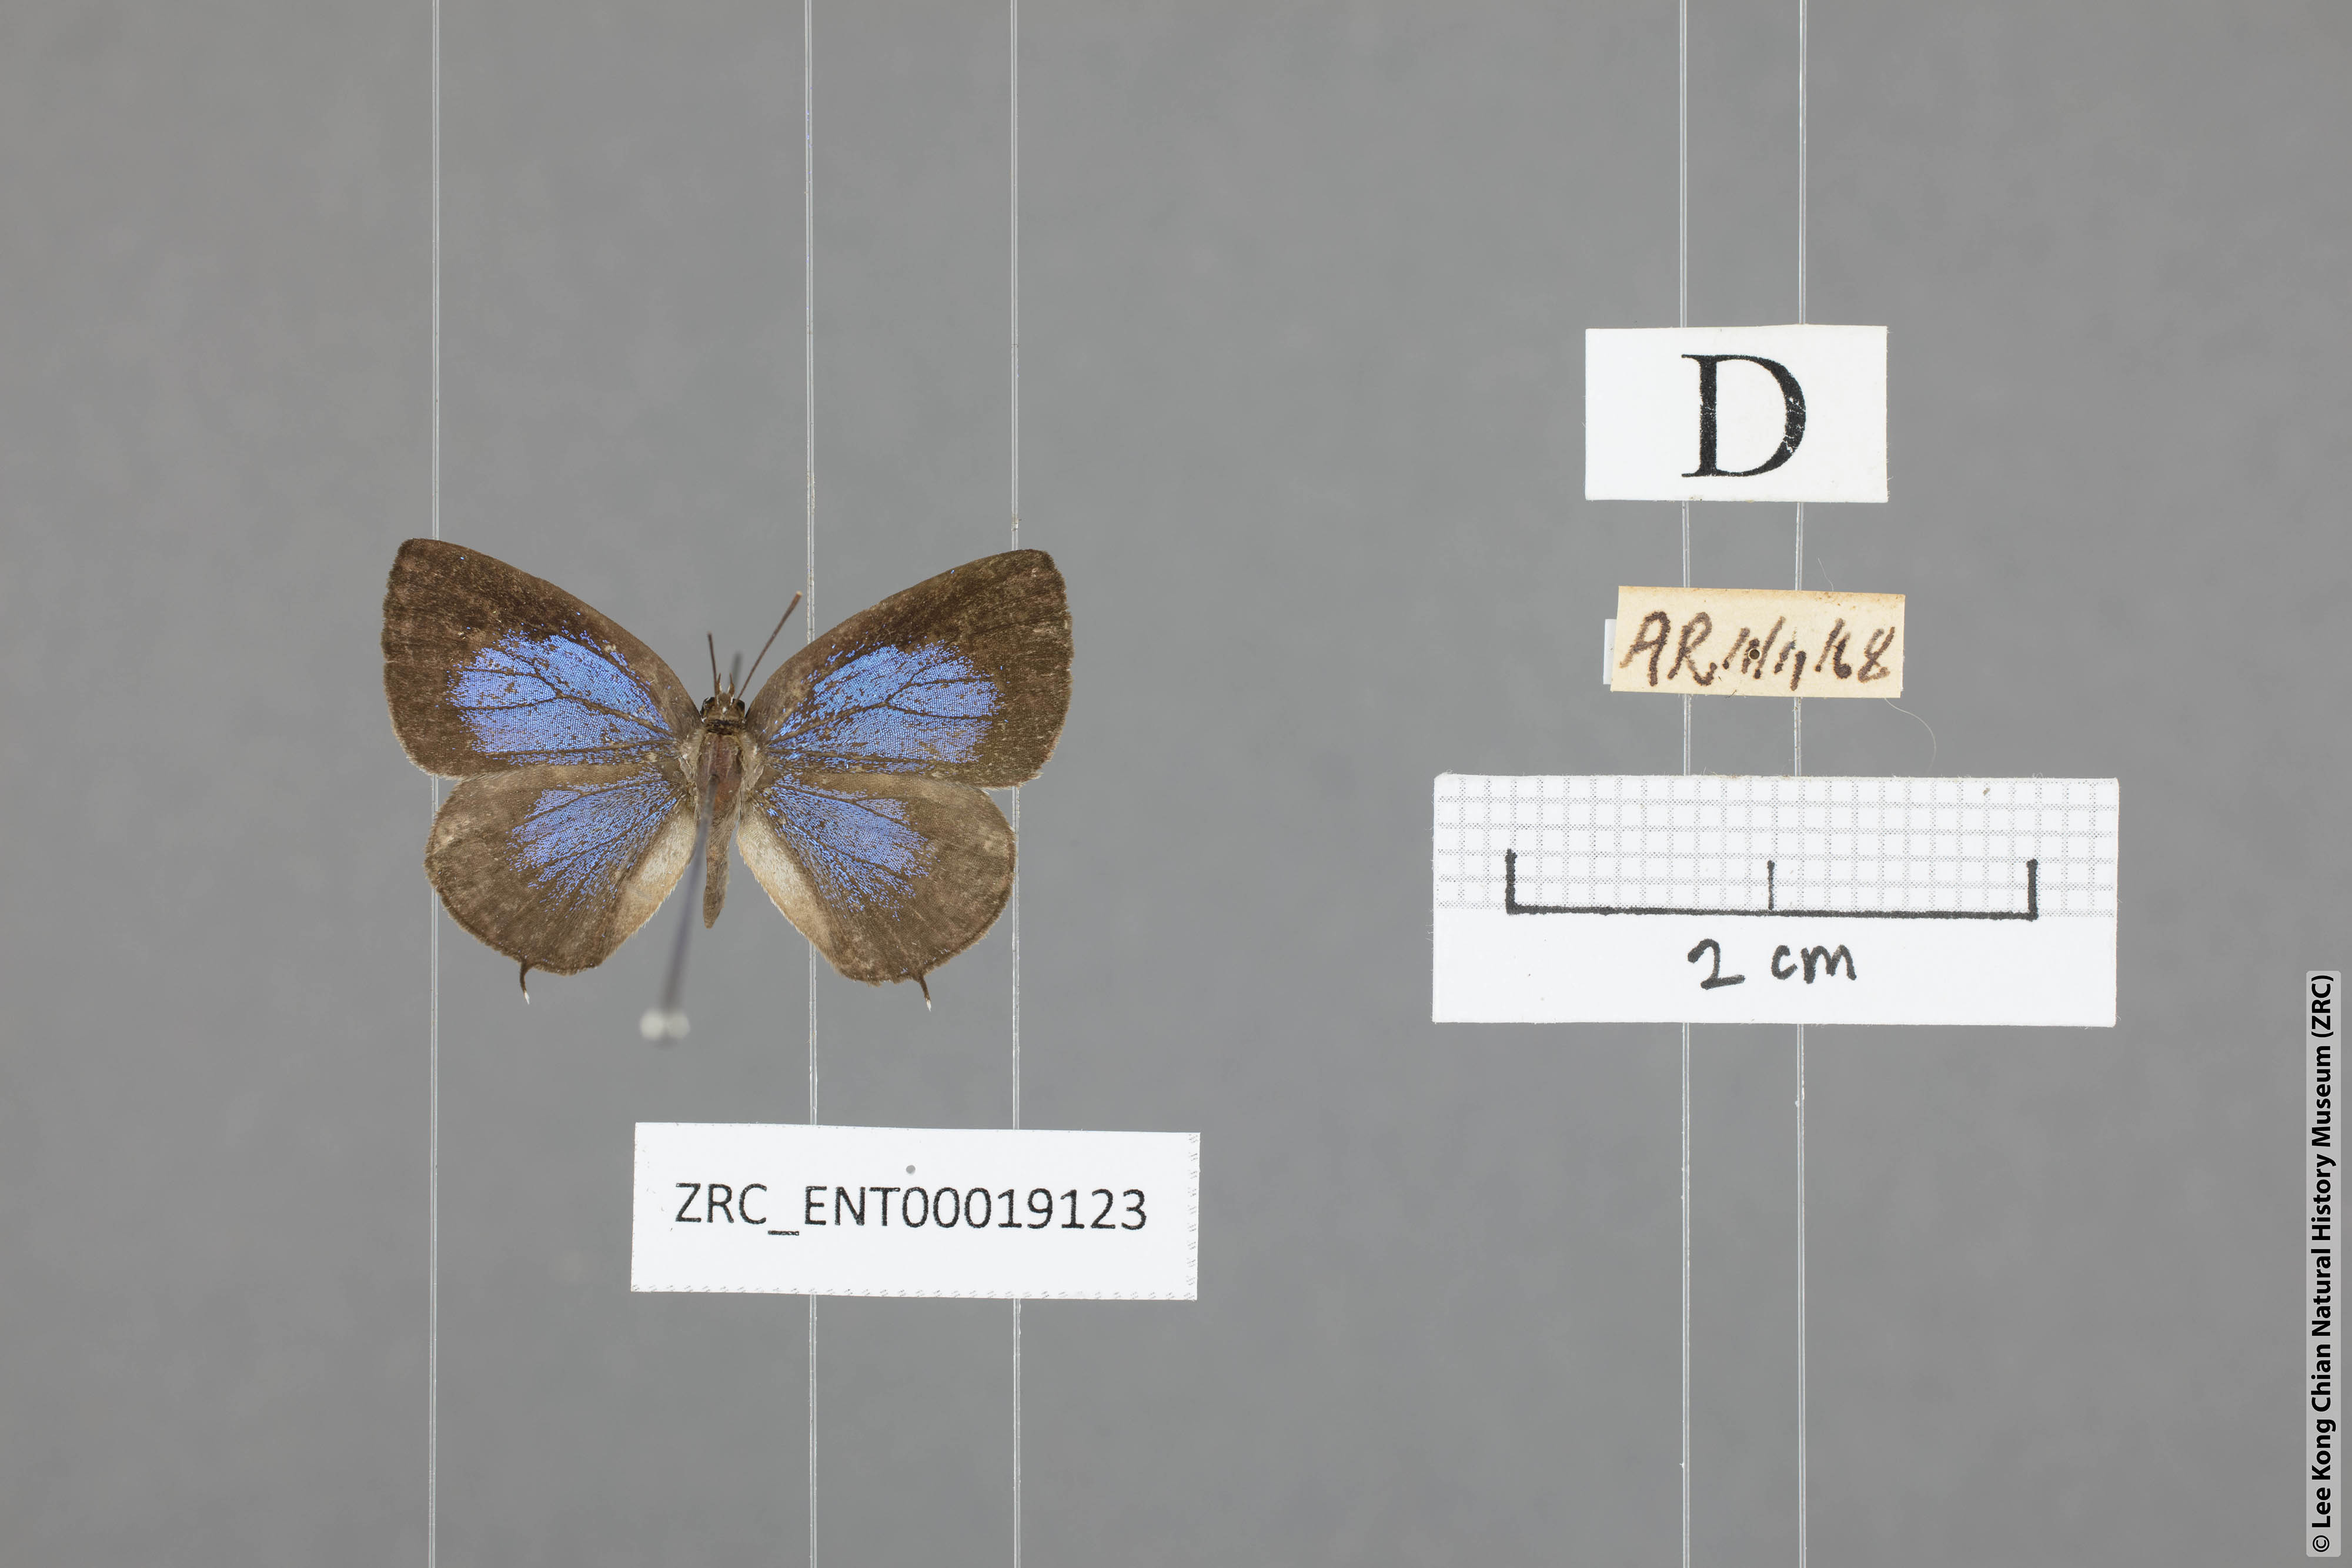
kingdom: Animalia
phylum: Arthropoda
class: Insecta
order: Lepidoptera
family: Lycaenidae
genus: Arhopala
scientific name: Arhopala ammonides
